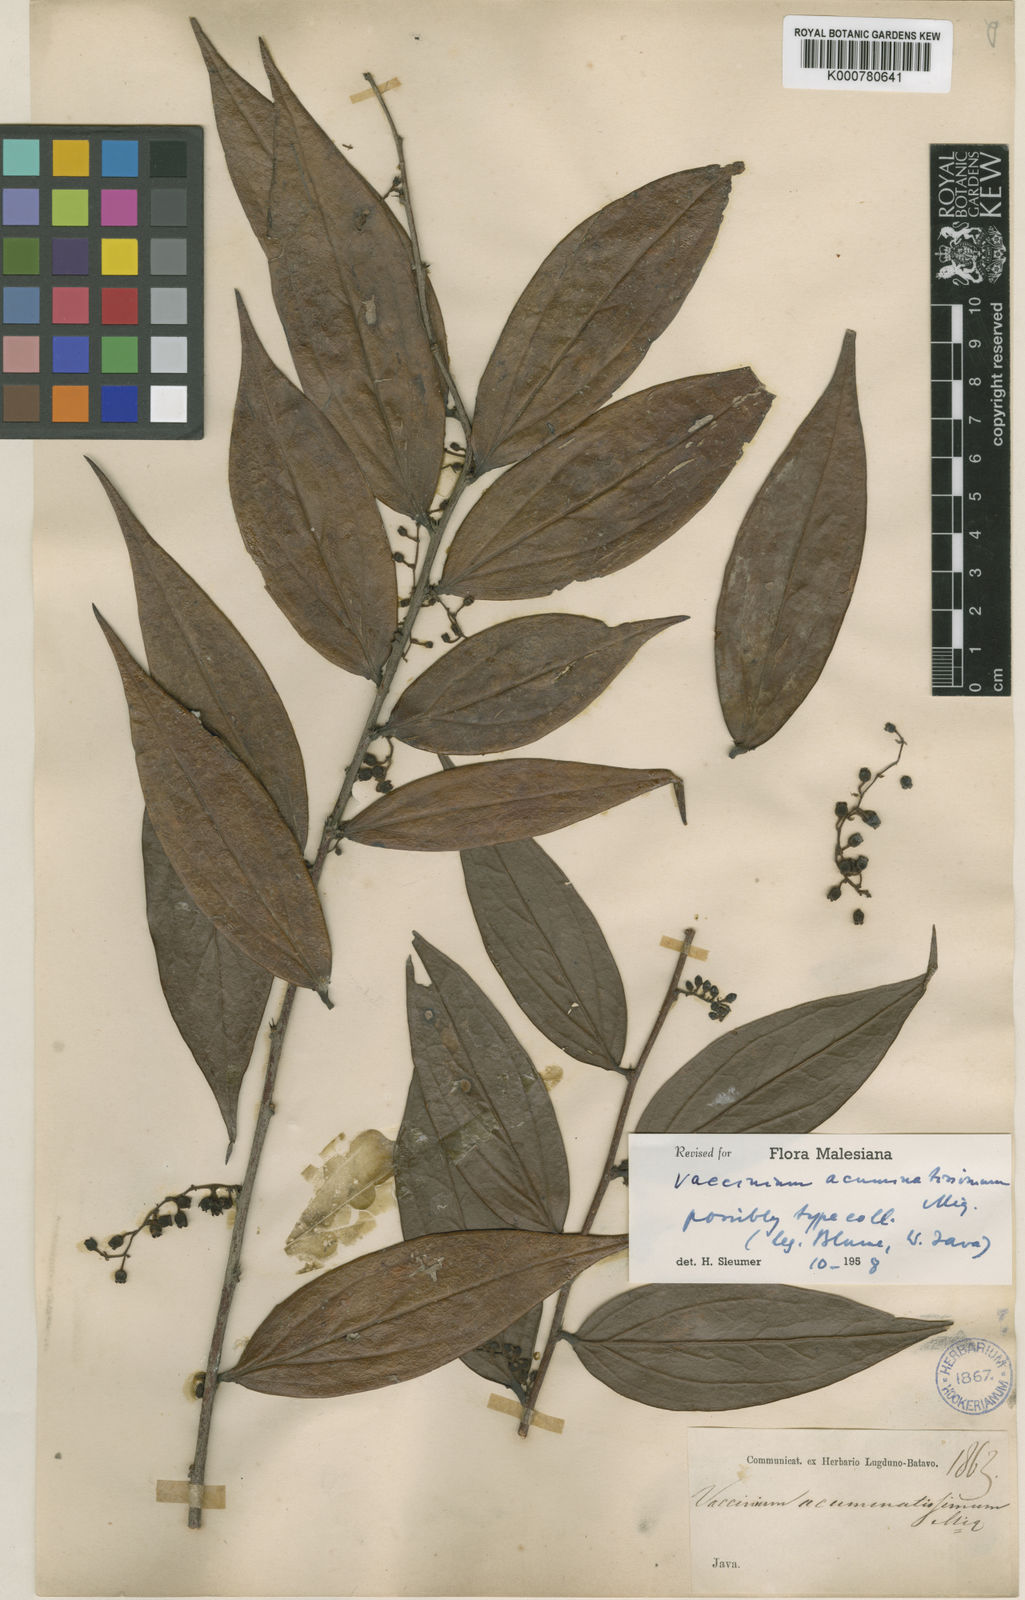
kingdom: Plantae
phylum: Tracheophyta
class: Magnoliopsida
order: Ericales
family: Ericaceae
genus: Rigiolepis
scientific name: Rigiolepis lanceolata
